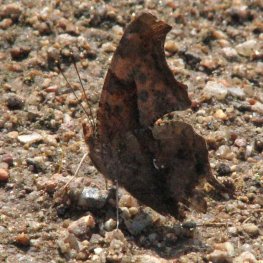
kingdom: Animalia
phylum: Arthropoda
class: Insecta
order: Lepidoptera
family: Nymphalidae
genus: Polygonia
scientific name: Polygonia interrogationis
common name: Question Mark
